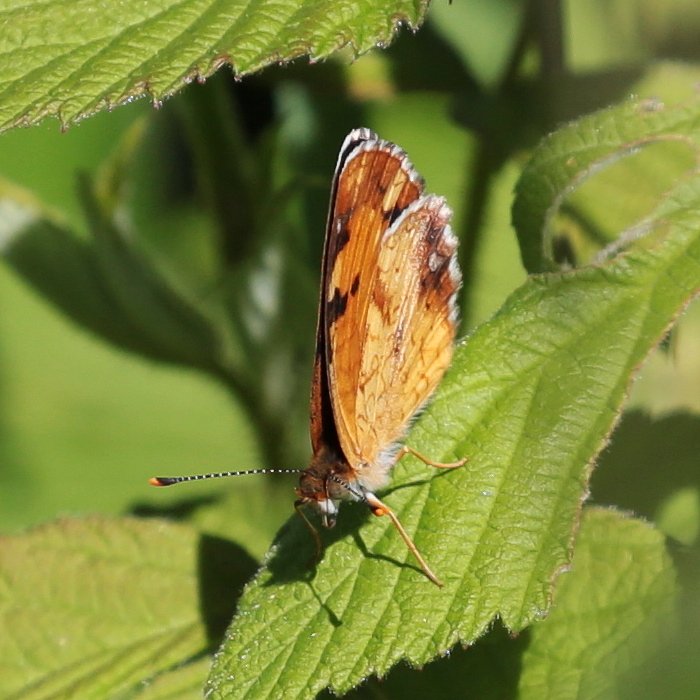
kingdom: Animalia
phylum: Arthropoda
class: Insecta
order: Lepidoptera
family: Nymphalidae
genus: Phyciodes
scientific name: Phyciodes tharos
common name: Northern Crescent
